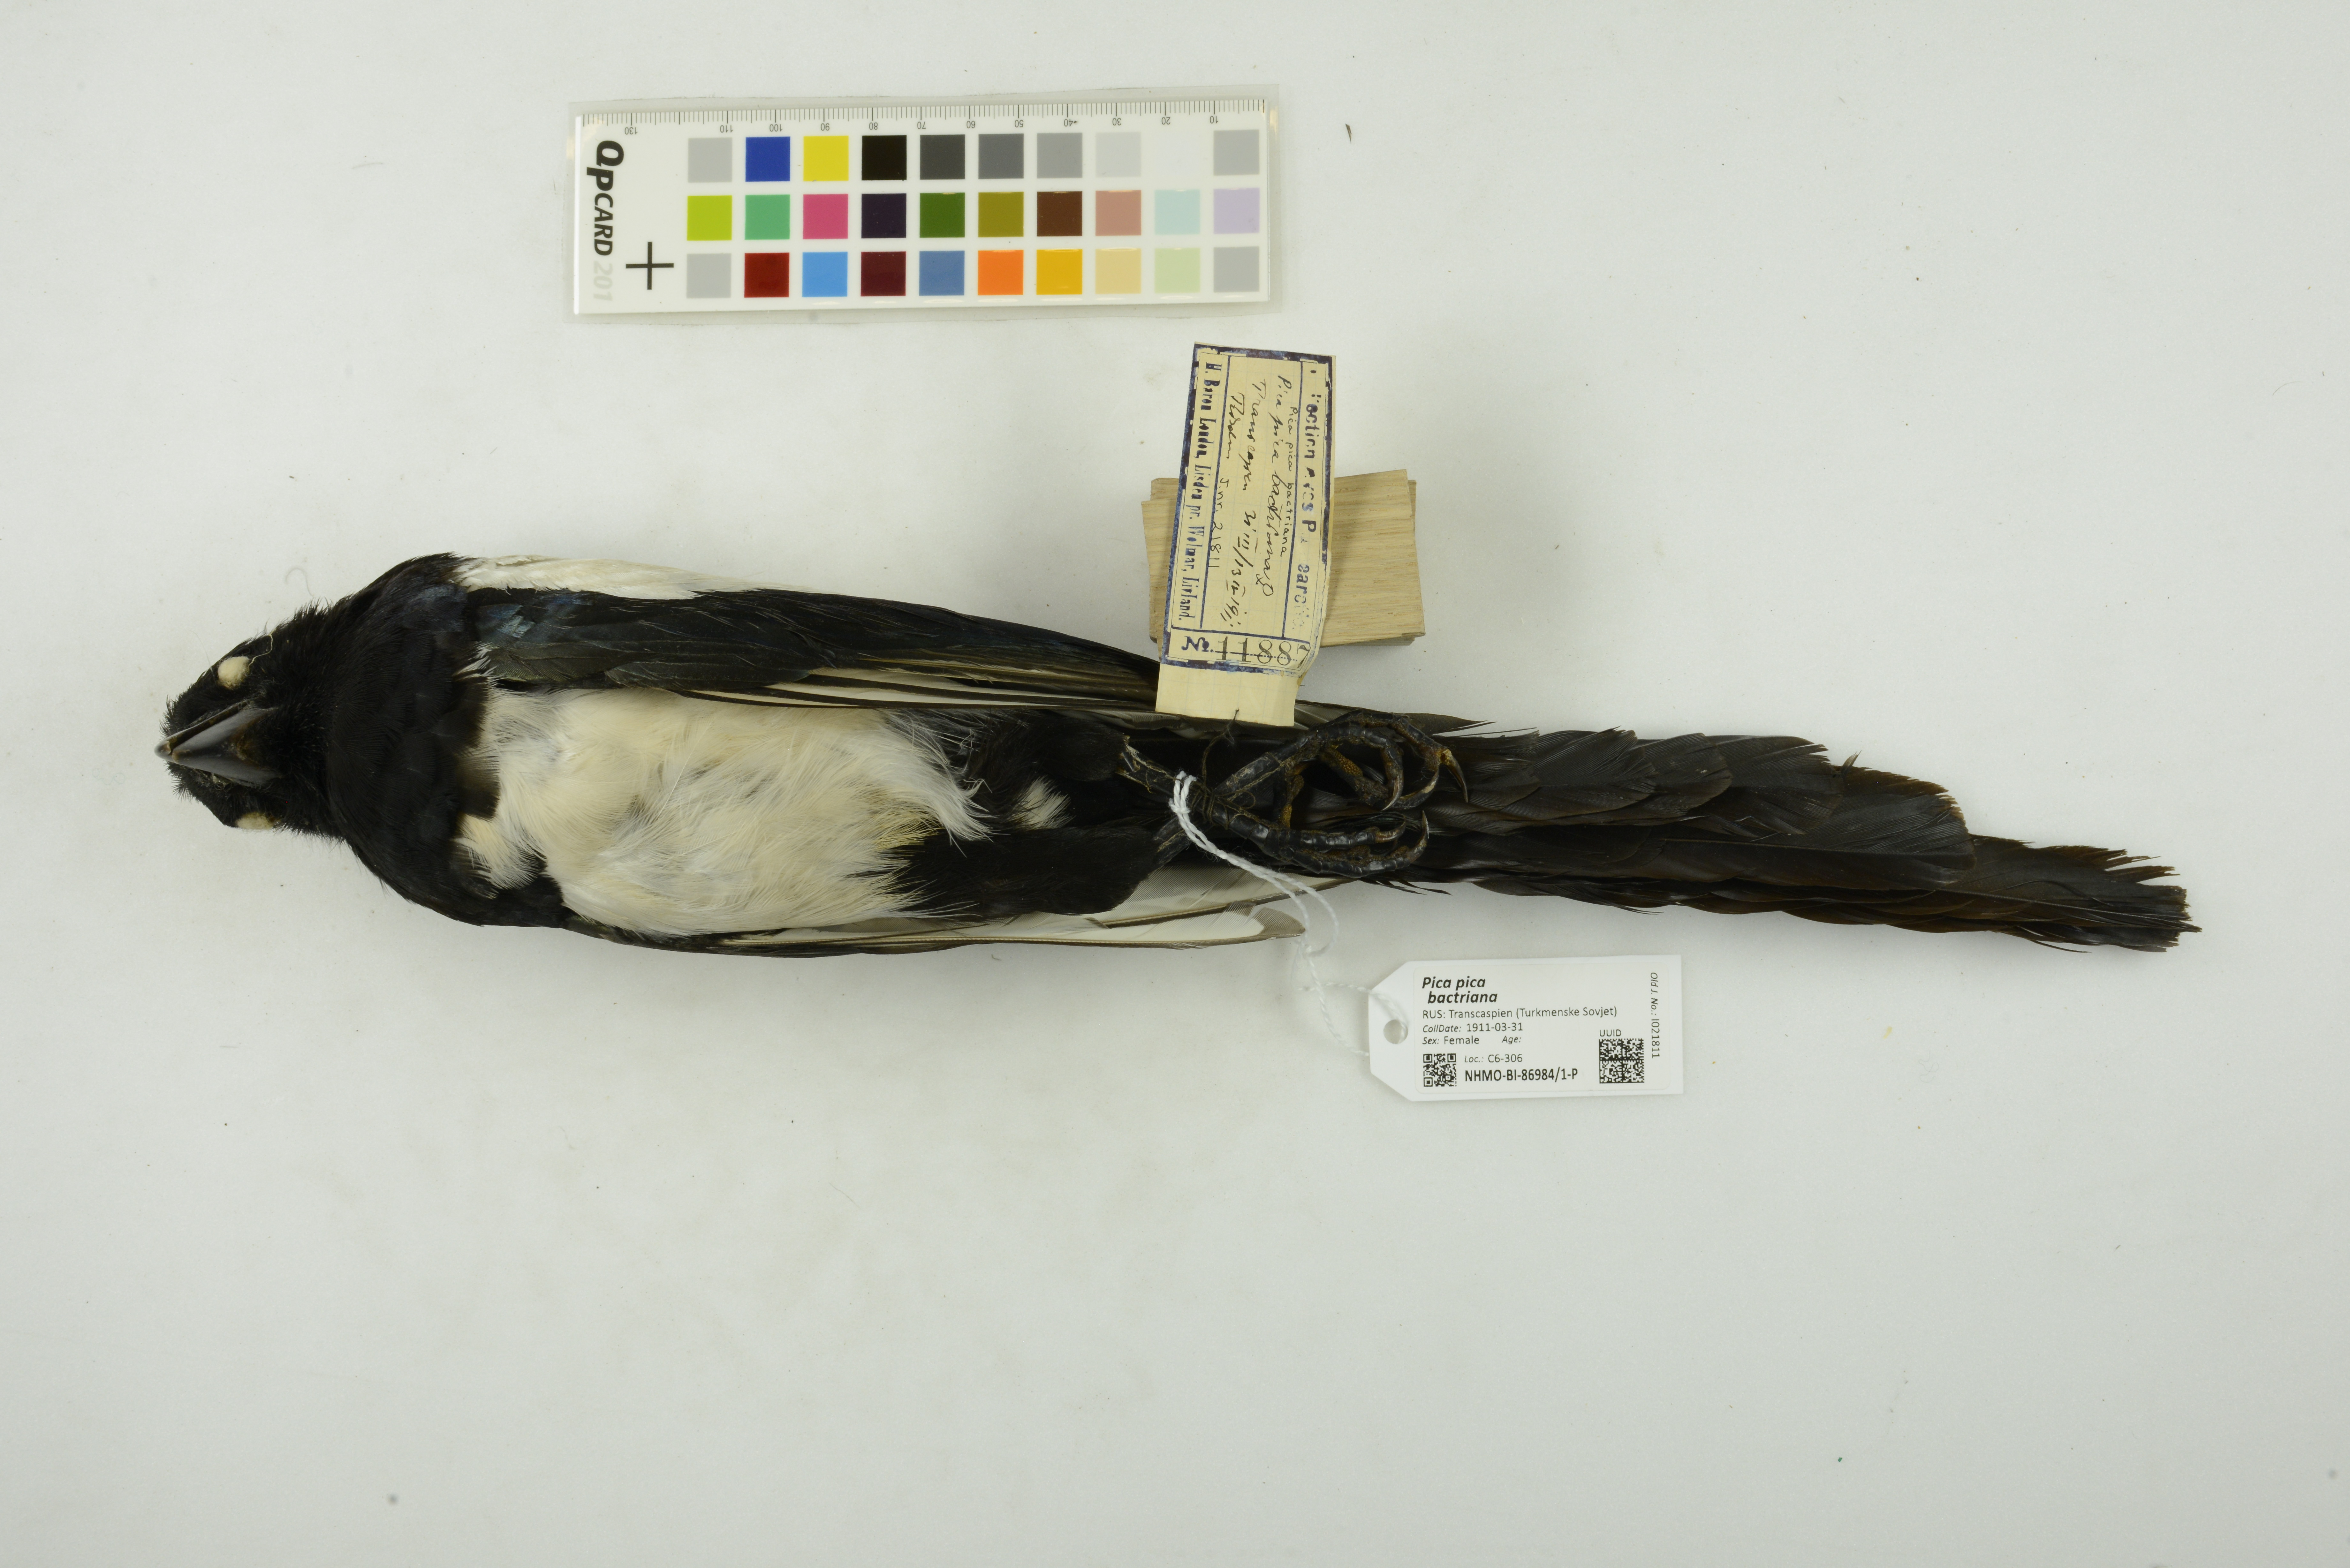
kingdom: Animalia
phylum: Chordata
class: Aves
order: Passeriformes
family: Corvidae
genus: Pica
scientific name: Pica pica
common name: Eurasian magpie
